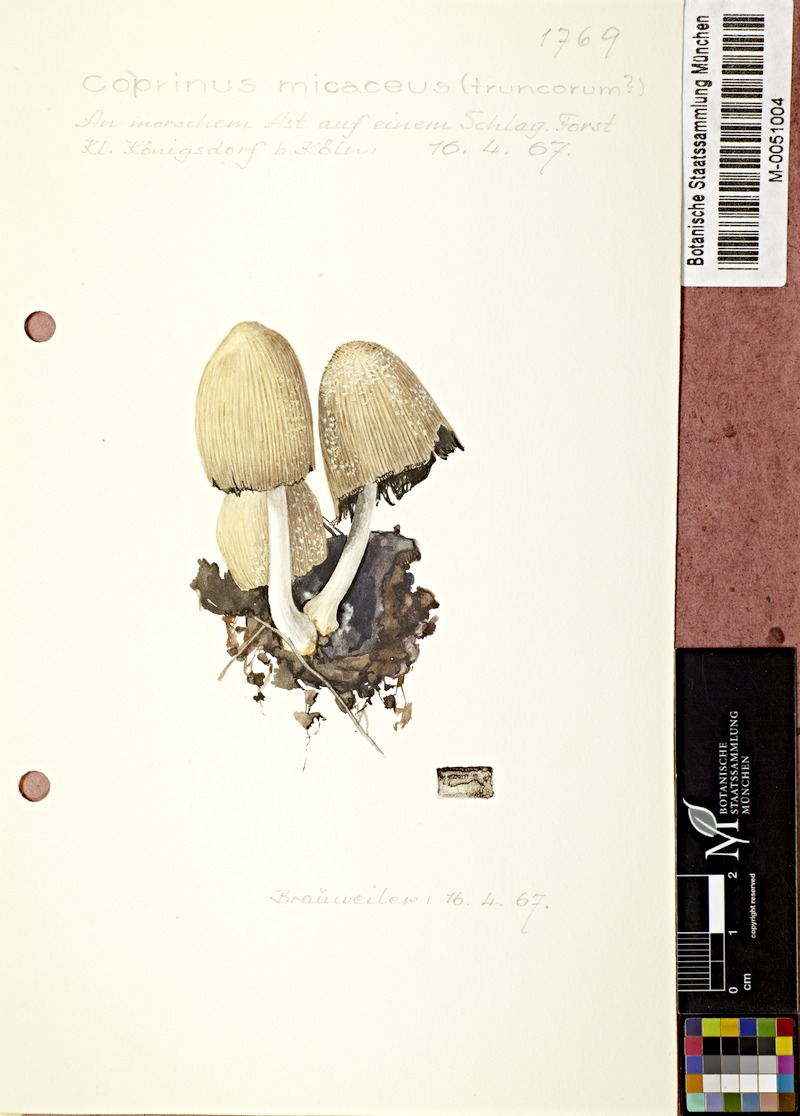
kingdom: Fungi
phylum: Basidiomycota
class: Agaricomycetes
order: Agaricales
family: Psathyrellaceae
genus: Coprinellus
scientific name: Coprinellus micaceus
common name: Glistening ink-cap
